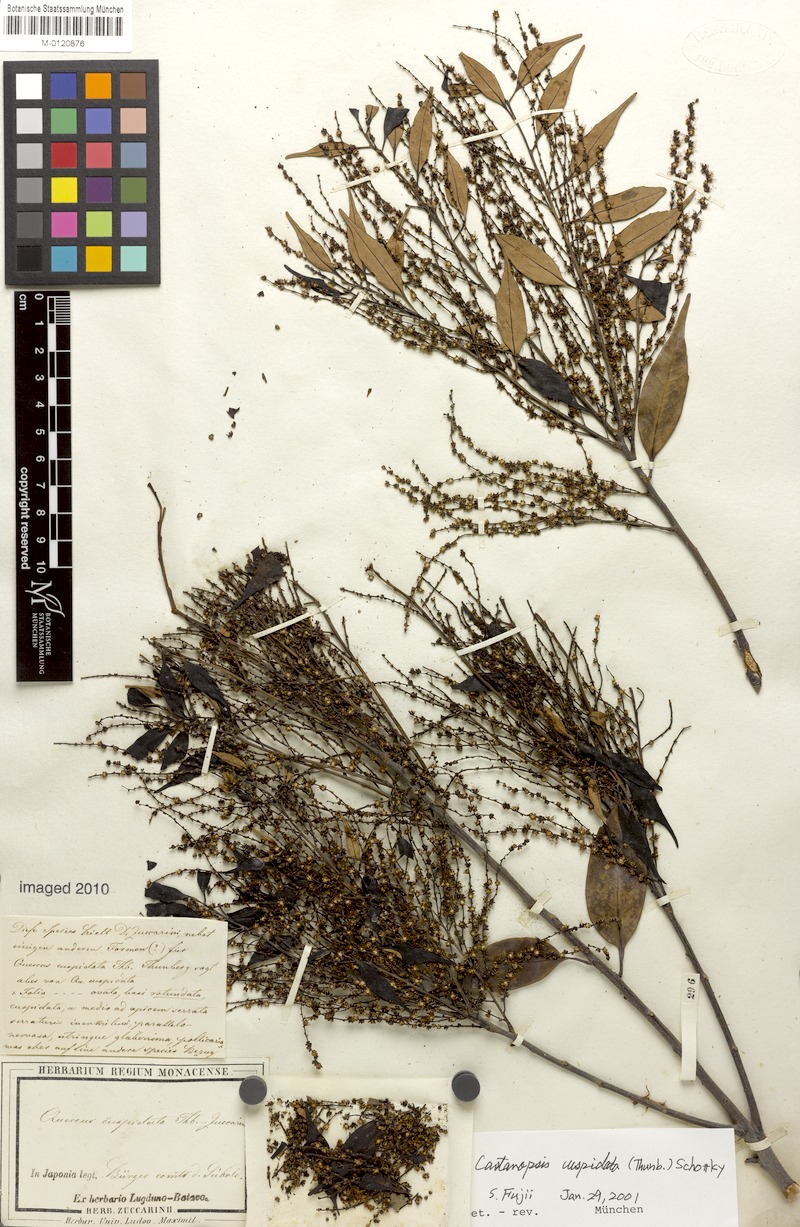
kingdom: Plantae
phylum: Tracheophyta
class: Magnoliopsida
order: Fagales
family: Fagaceae
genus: Castanopsis
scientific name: Castanopsis cuspidata
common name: Japanese chinquapin
